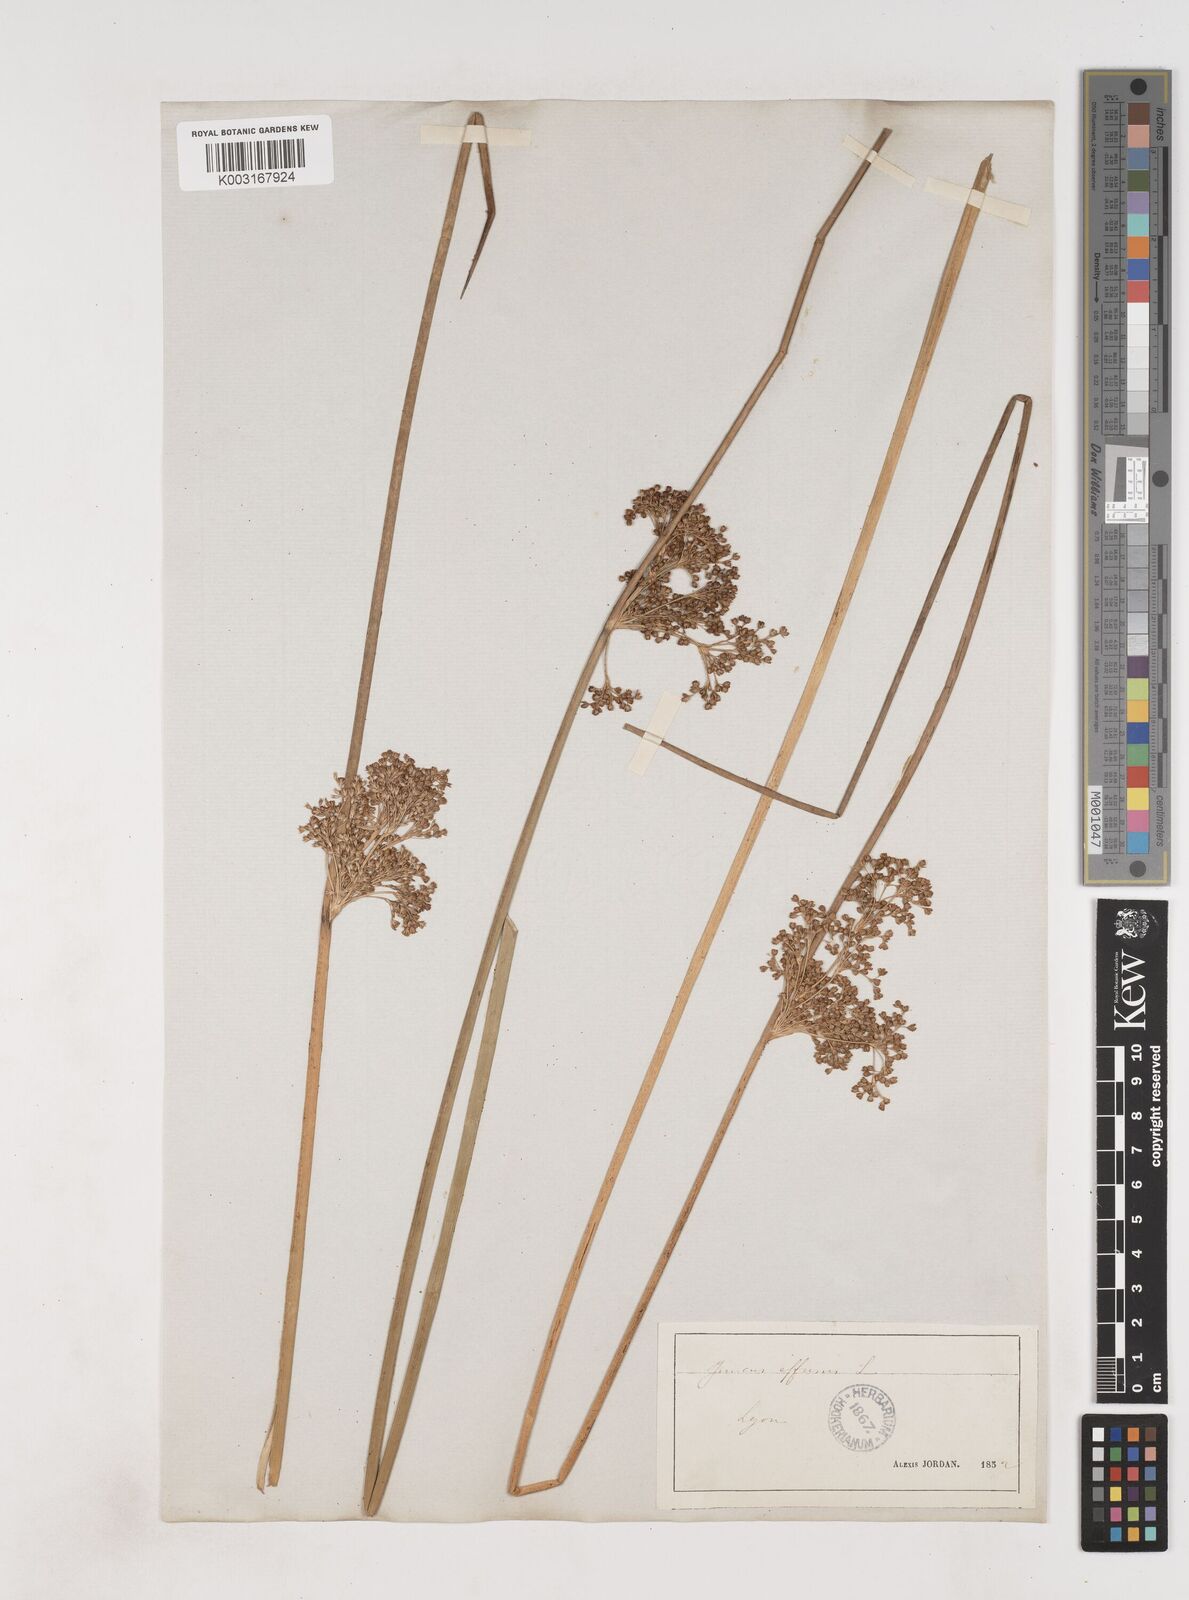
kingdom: Plantae
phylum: Tracheophyta
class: Liliopsida
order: Poales
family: Juncaceae
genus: Juncus
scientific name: Juncus effusus
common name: Soft rush
